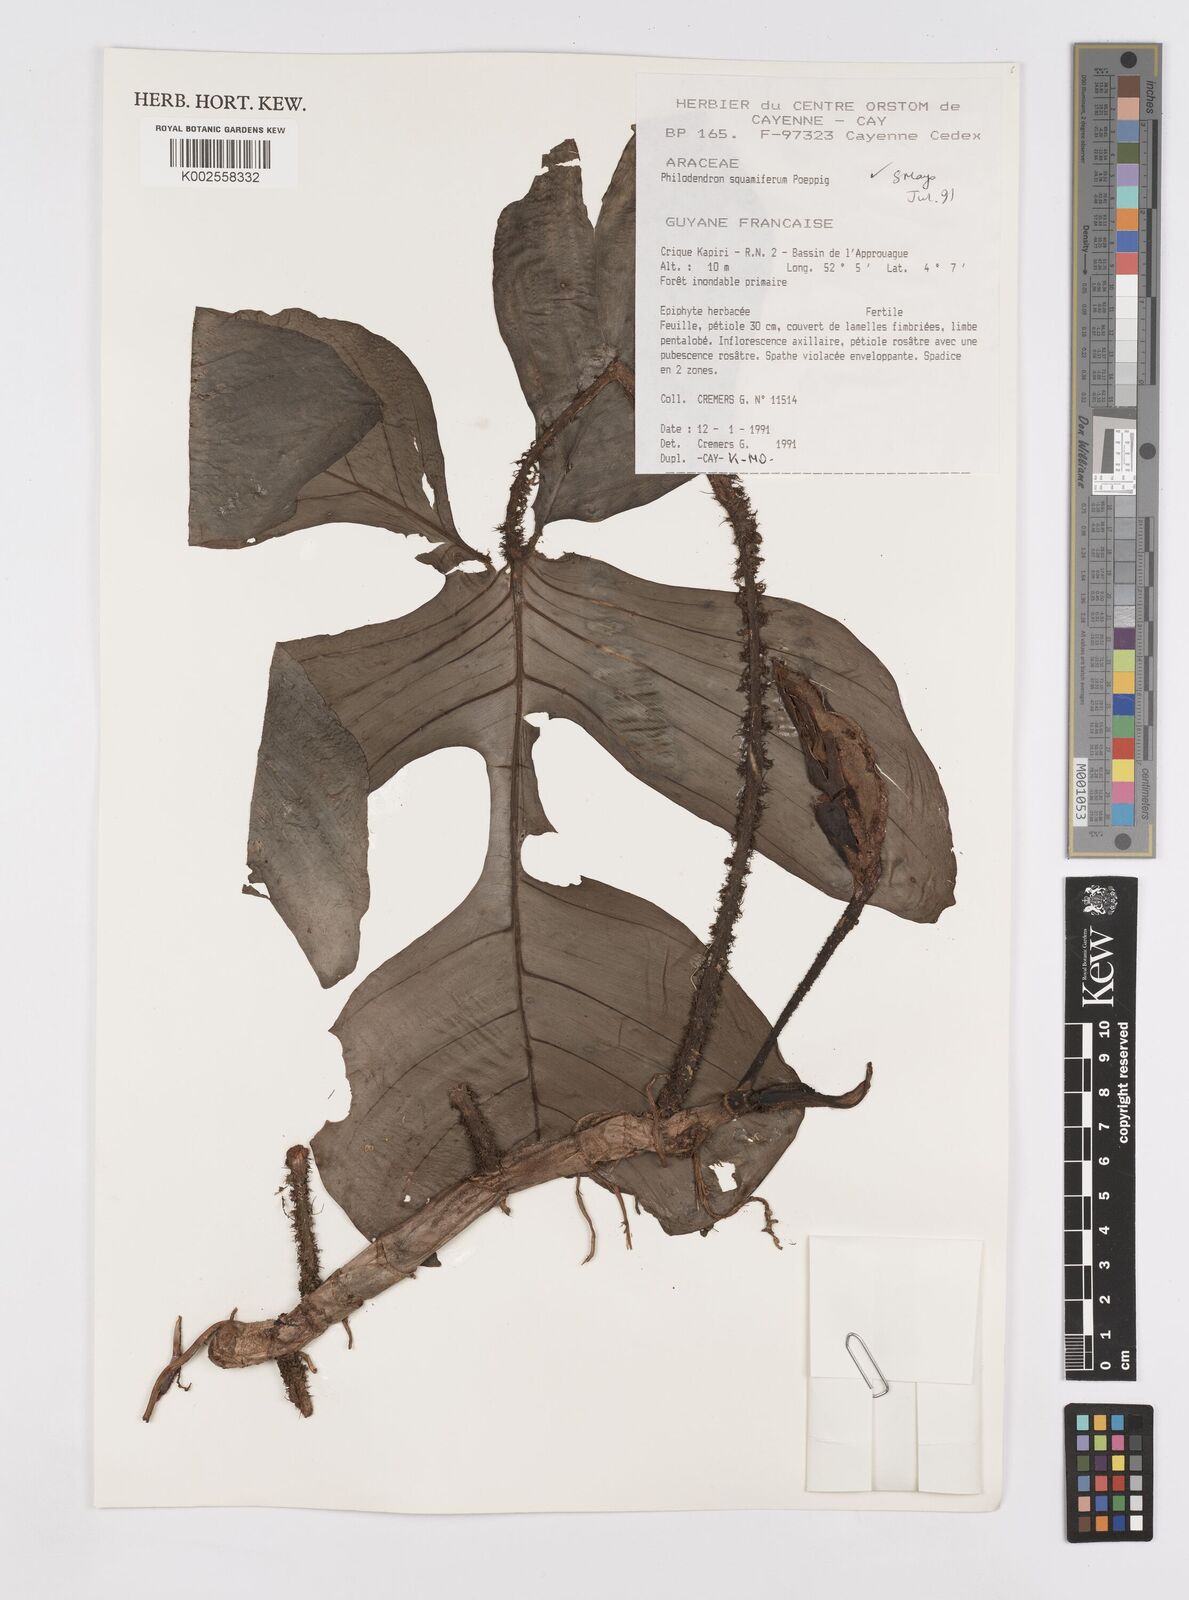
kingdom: Plantae
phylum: Tracheophyta
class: Liliopsida
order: Alismatales
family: Araceae
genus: Philodendron
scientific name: Philodendron squamiferum
